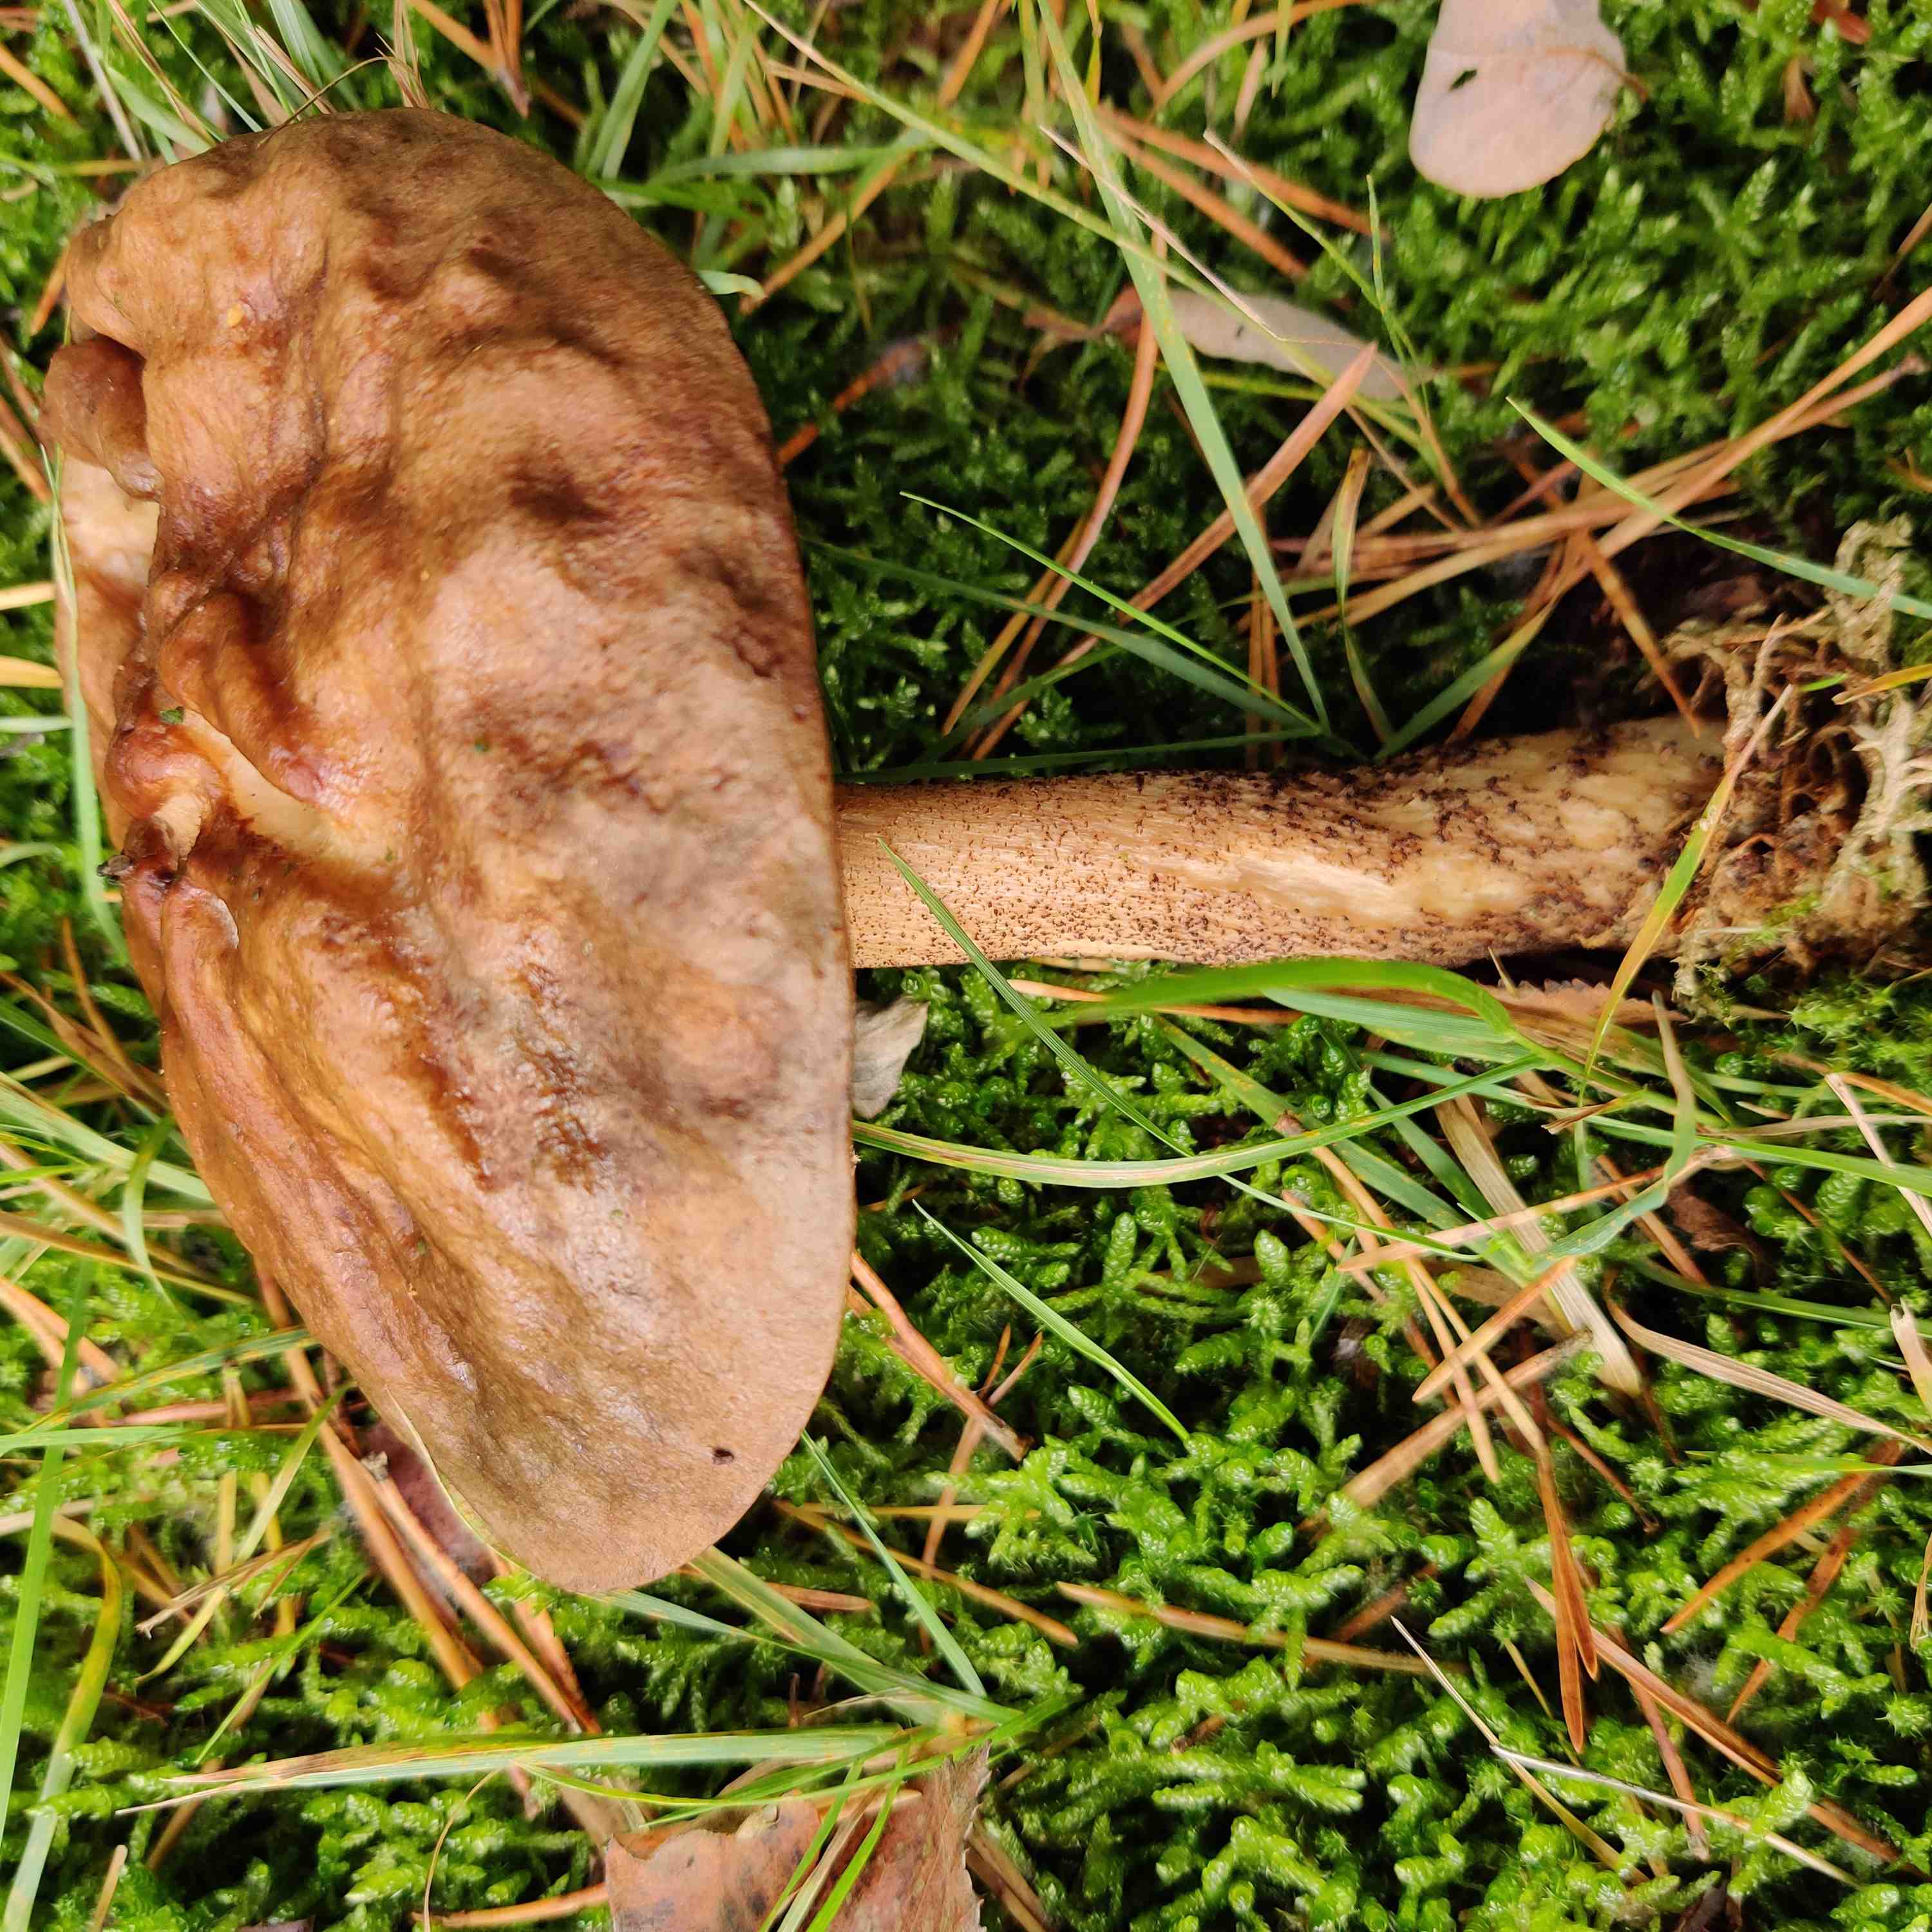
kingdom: Fungi
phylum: Basidiomycota
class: Agaricomycetes
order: Boletales
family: Boletaceae
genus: Leccinum
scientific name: Leccinum
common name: skælrørhat
